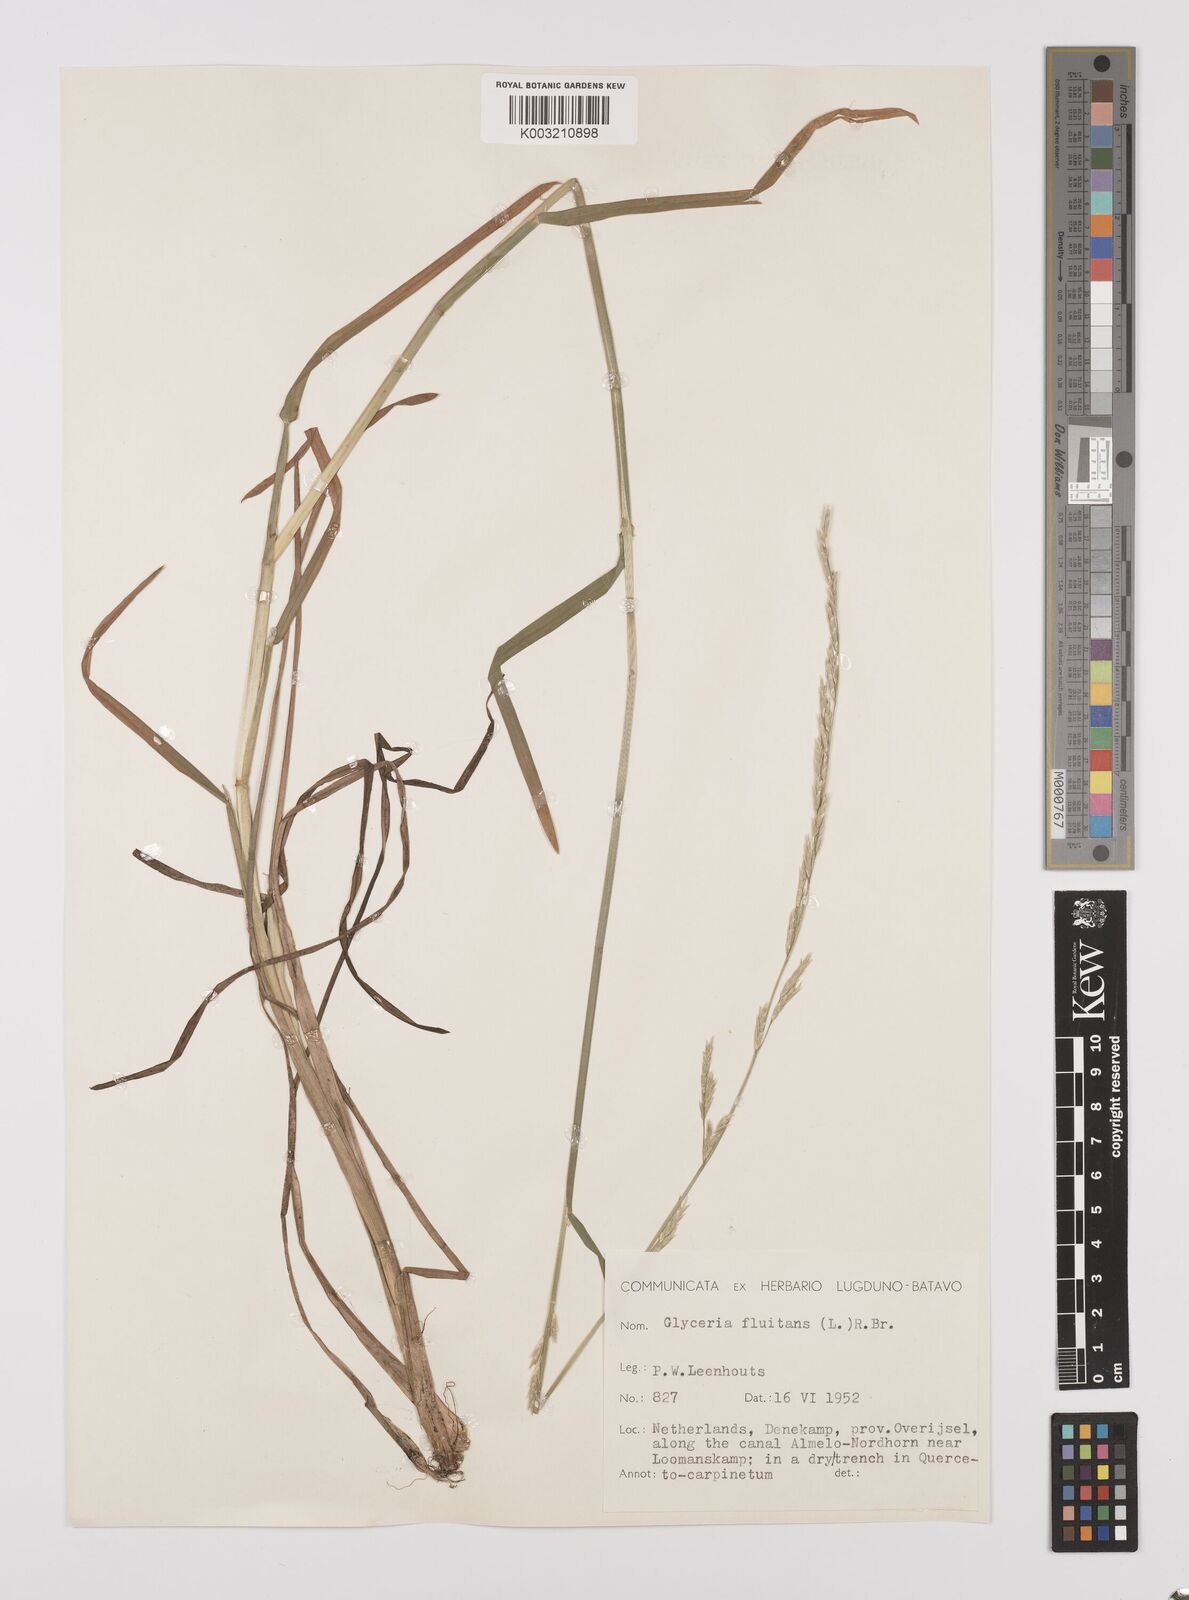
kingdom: Plantae
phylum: Tracheophyta
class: Liliopsida
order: Poales
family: Poaceae
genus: Glyceria
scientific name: Glyceria fluitans
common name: Floating sweet-grass
